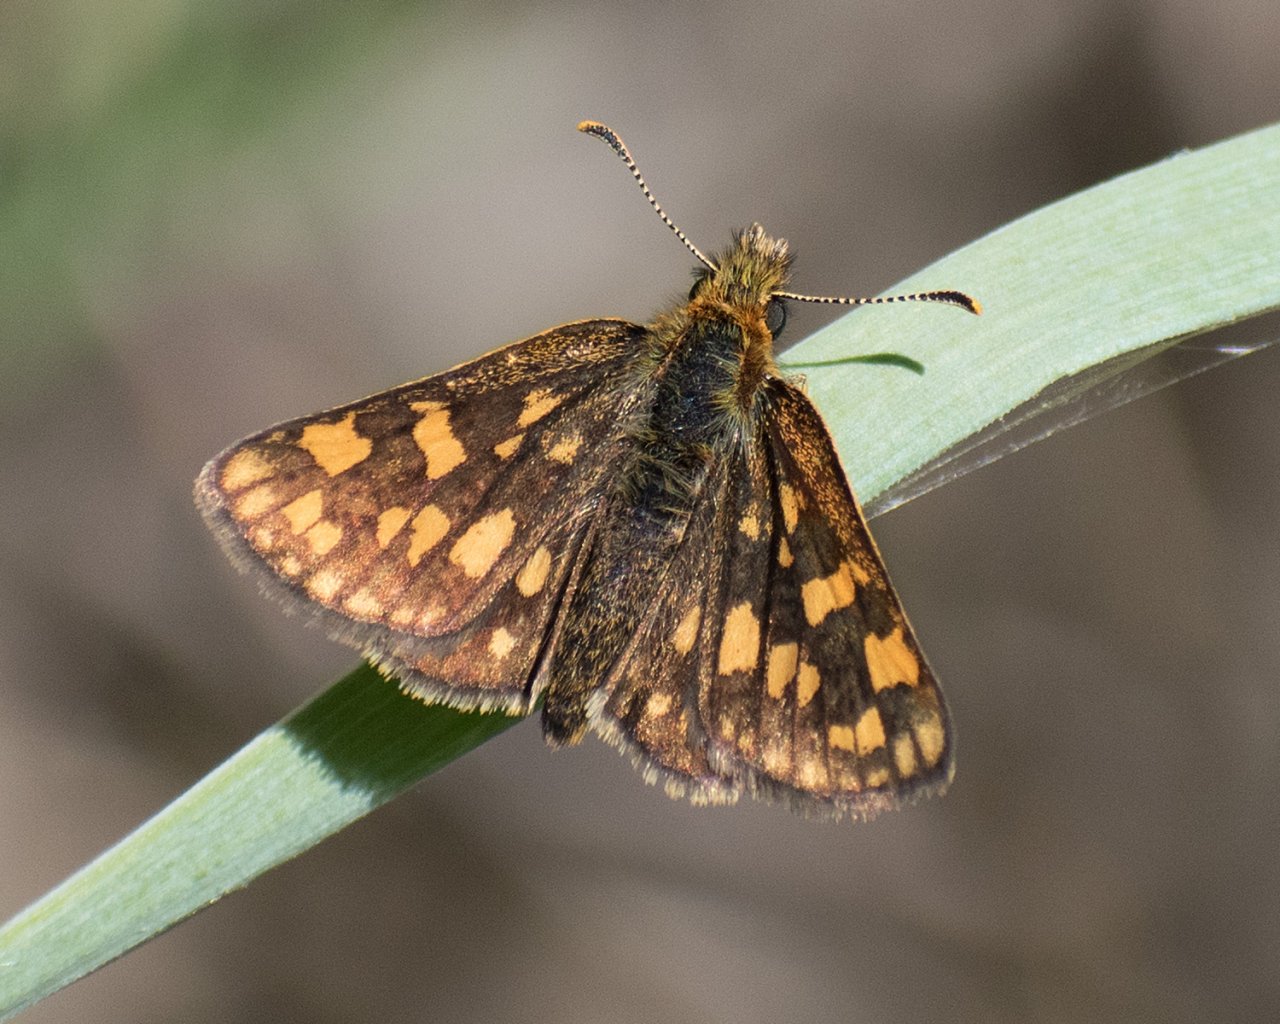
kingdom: Animalia
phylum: Arthropoda
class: Insecta
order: Lepidoptera
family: Hesperiidae
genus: Carterocephalus
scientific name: Carterocephalus palaemon
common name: Chequered Skipper
